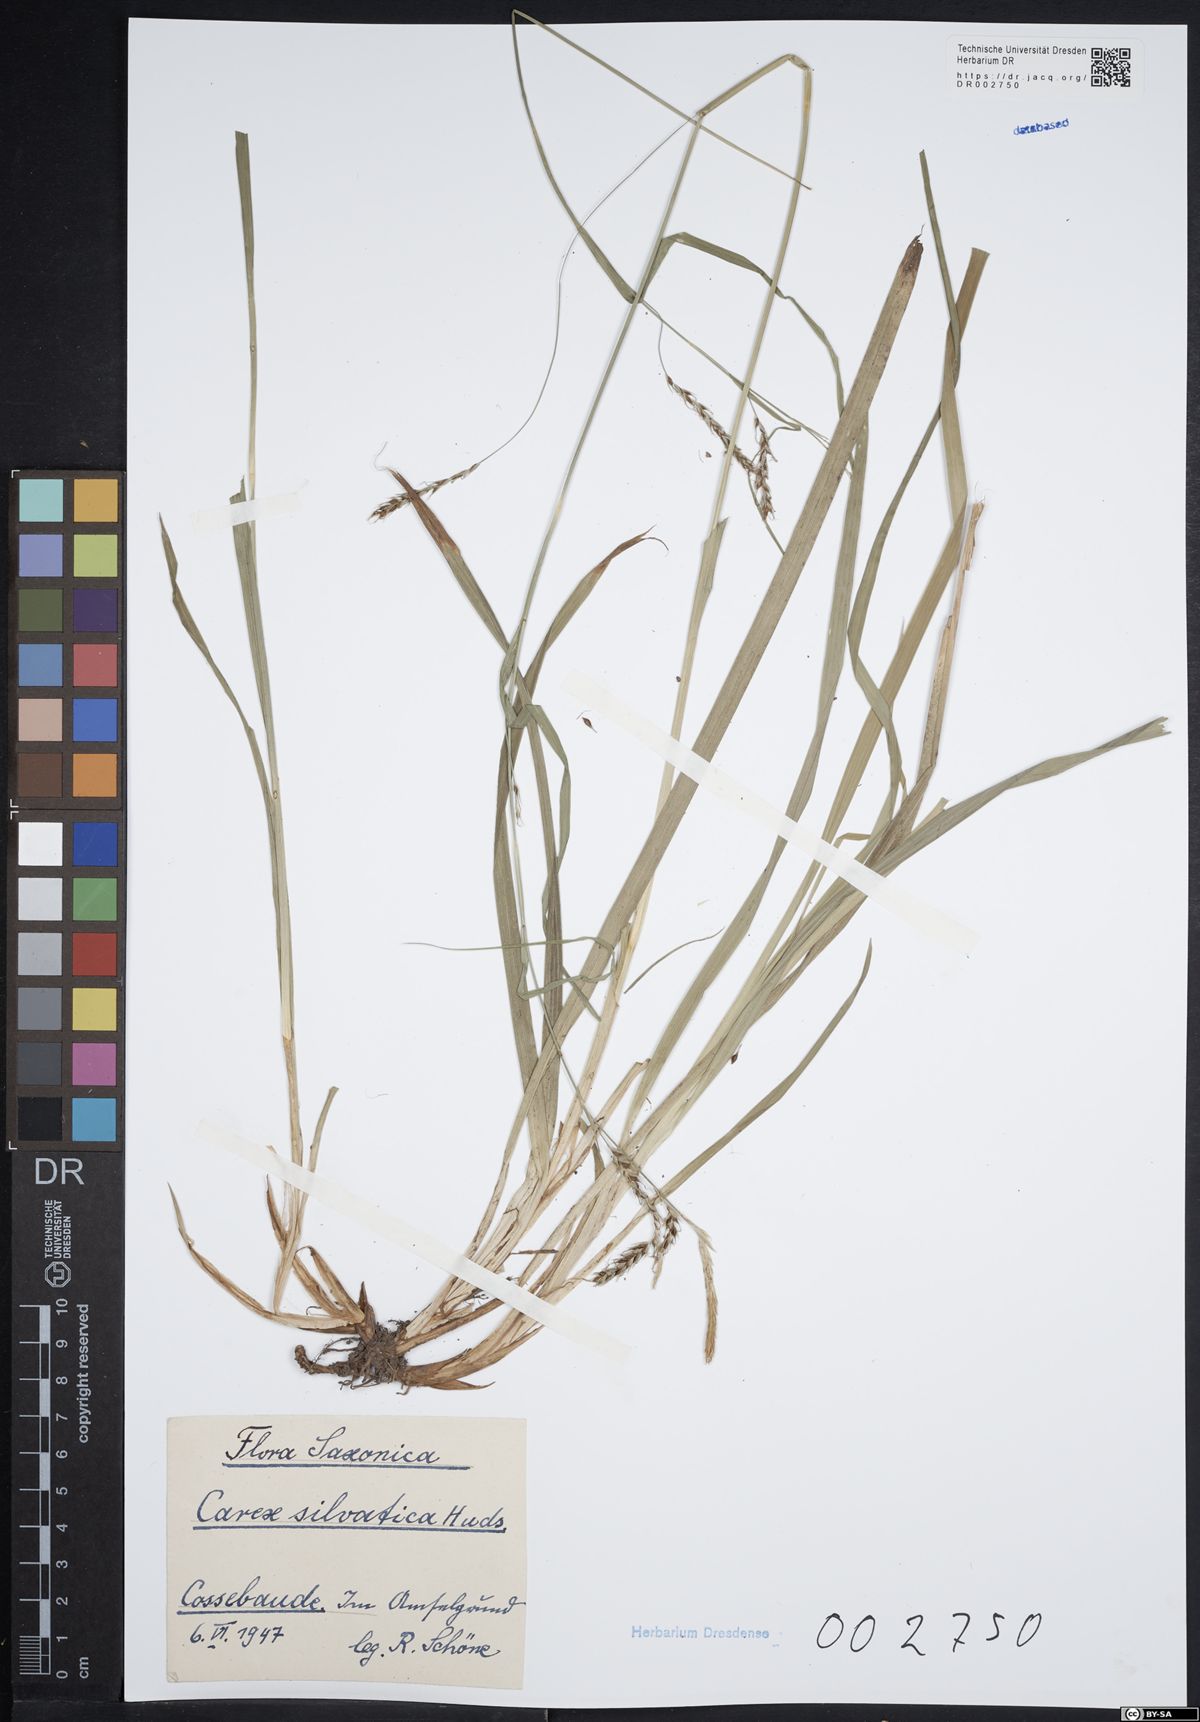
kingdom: Plantae
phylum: Tracheophyta
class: Liliopsida
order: Poales
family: Cyperaceae
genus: Carex
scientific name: Carex caryophyllea
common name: Spring sedge
